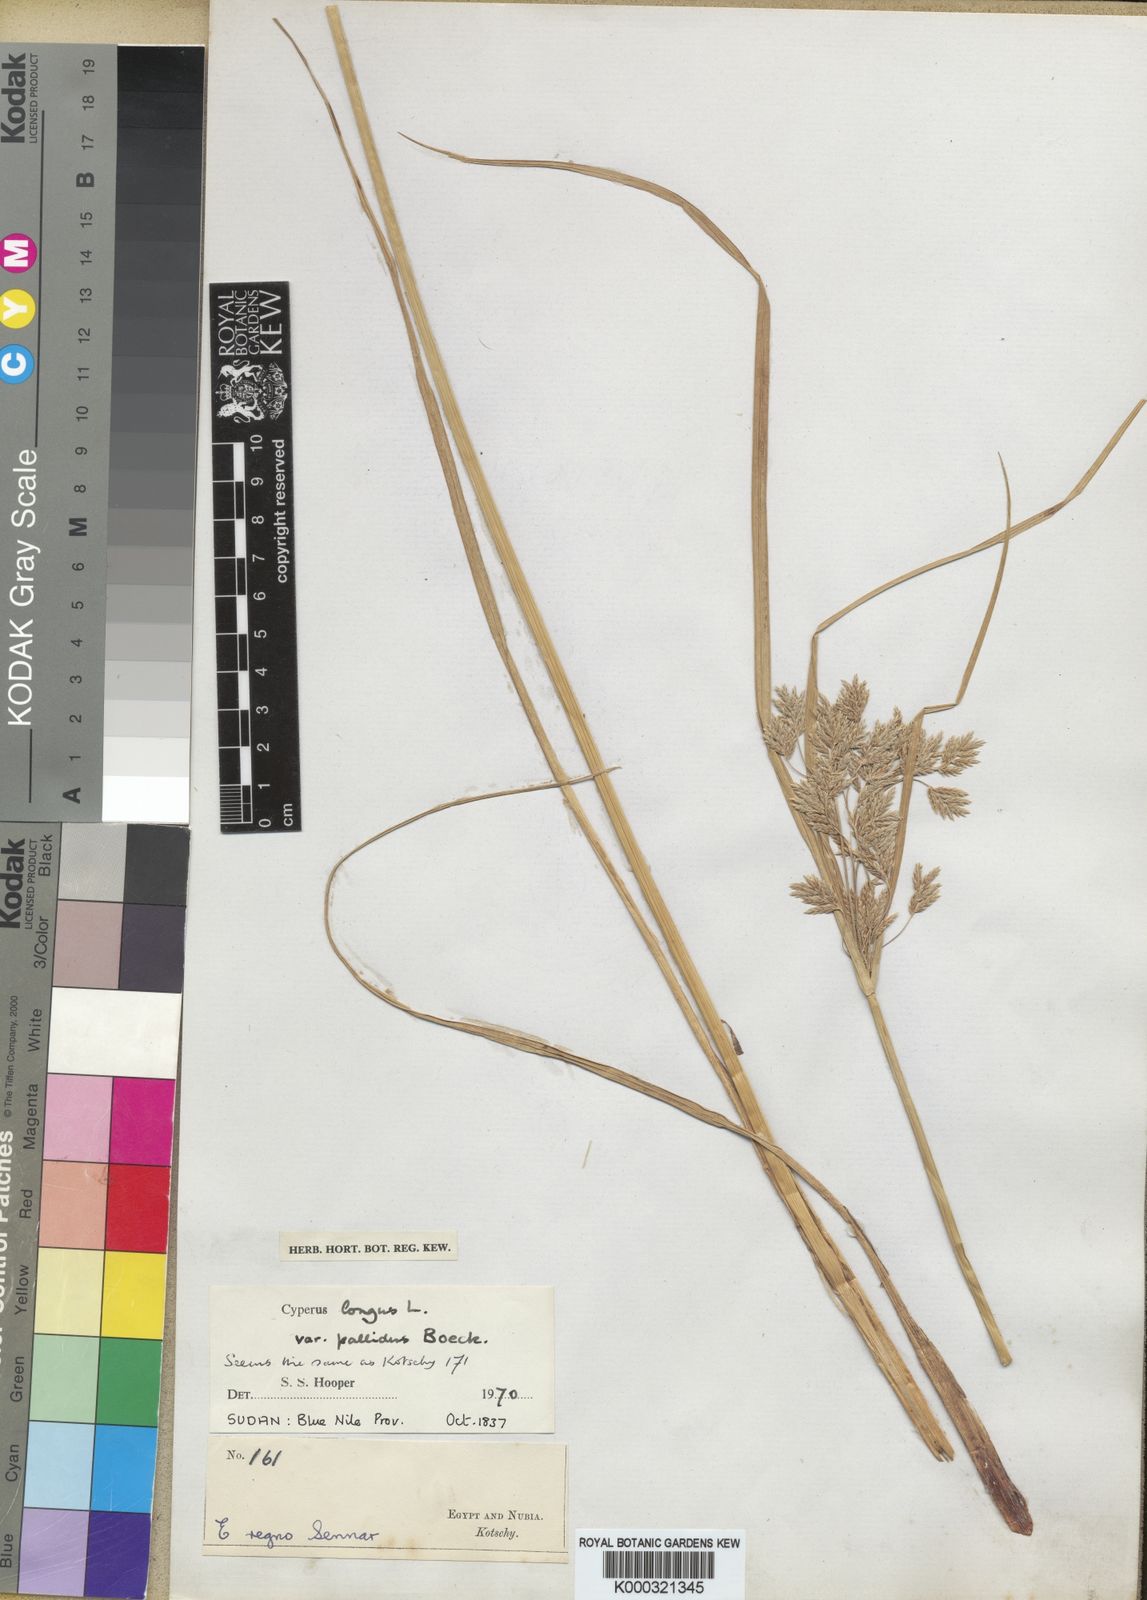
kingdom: Plantae
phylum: Tracheophyta
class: Liliopsida
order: Poales
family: Cyperaceae
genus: Cyperus
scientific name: Cyperus longus
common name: Galingale
